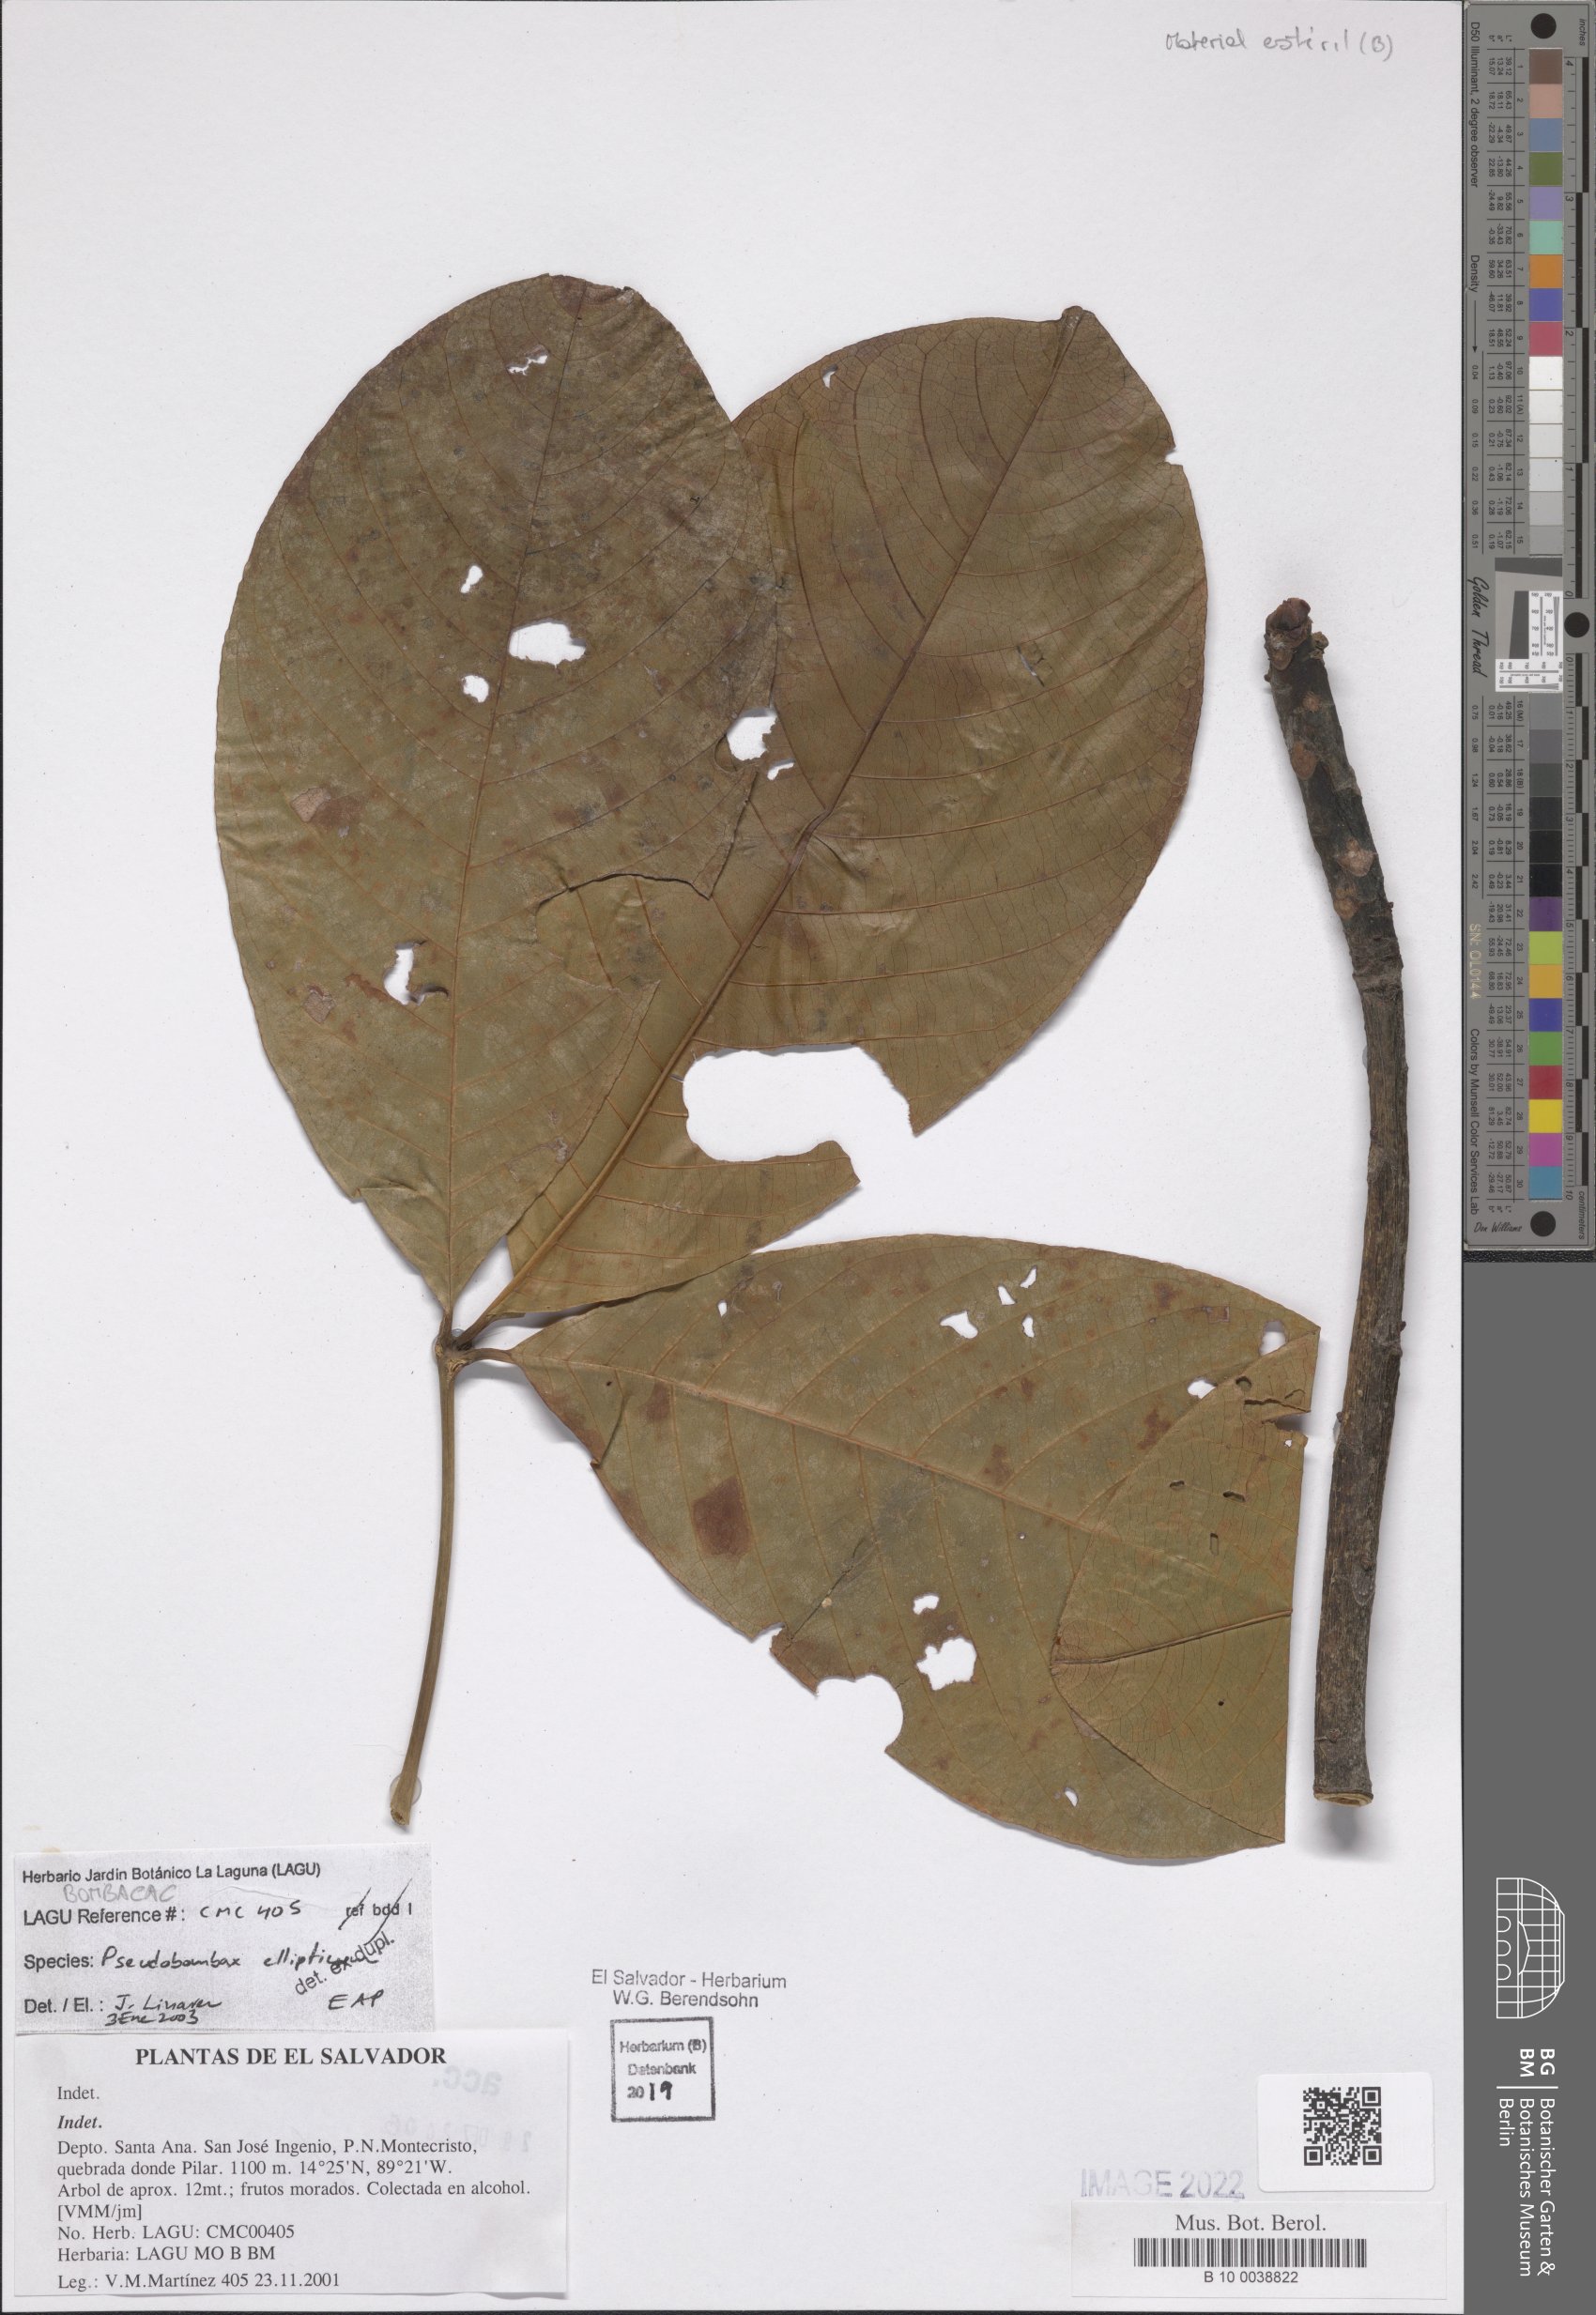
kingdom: Plantae
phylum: Tracheophyta
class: Magnoliopsida
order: Malvales
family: Malvaceae
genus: Pseudobombax
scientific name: Pseudobombax ellipticum
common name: Shaving-brush-tree
